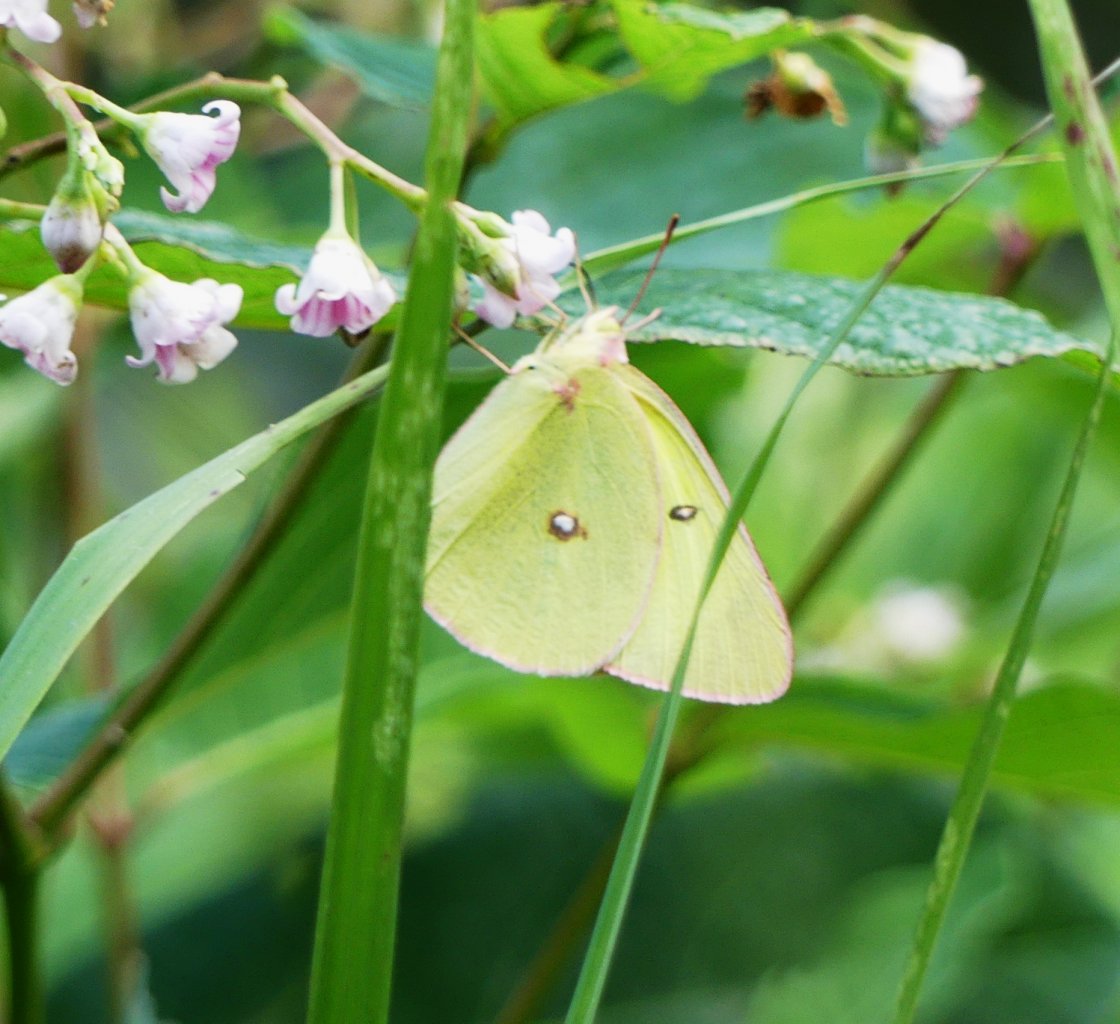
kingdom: Animalia
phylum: Arthropoda
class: Insecta
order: Lepidoptera
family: Pieridae
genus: Colias
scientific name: Colias interior
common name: Pink-edged Sulphur
